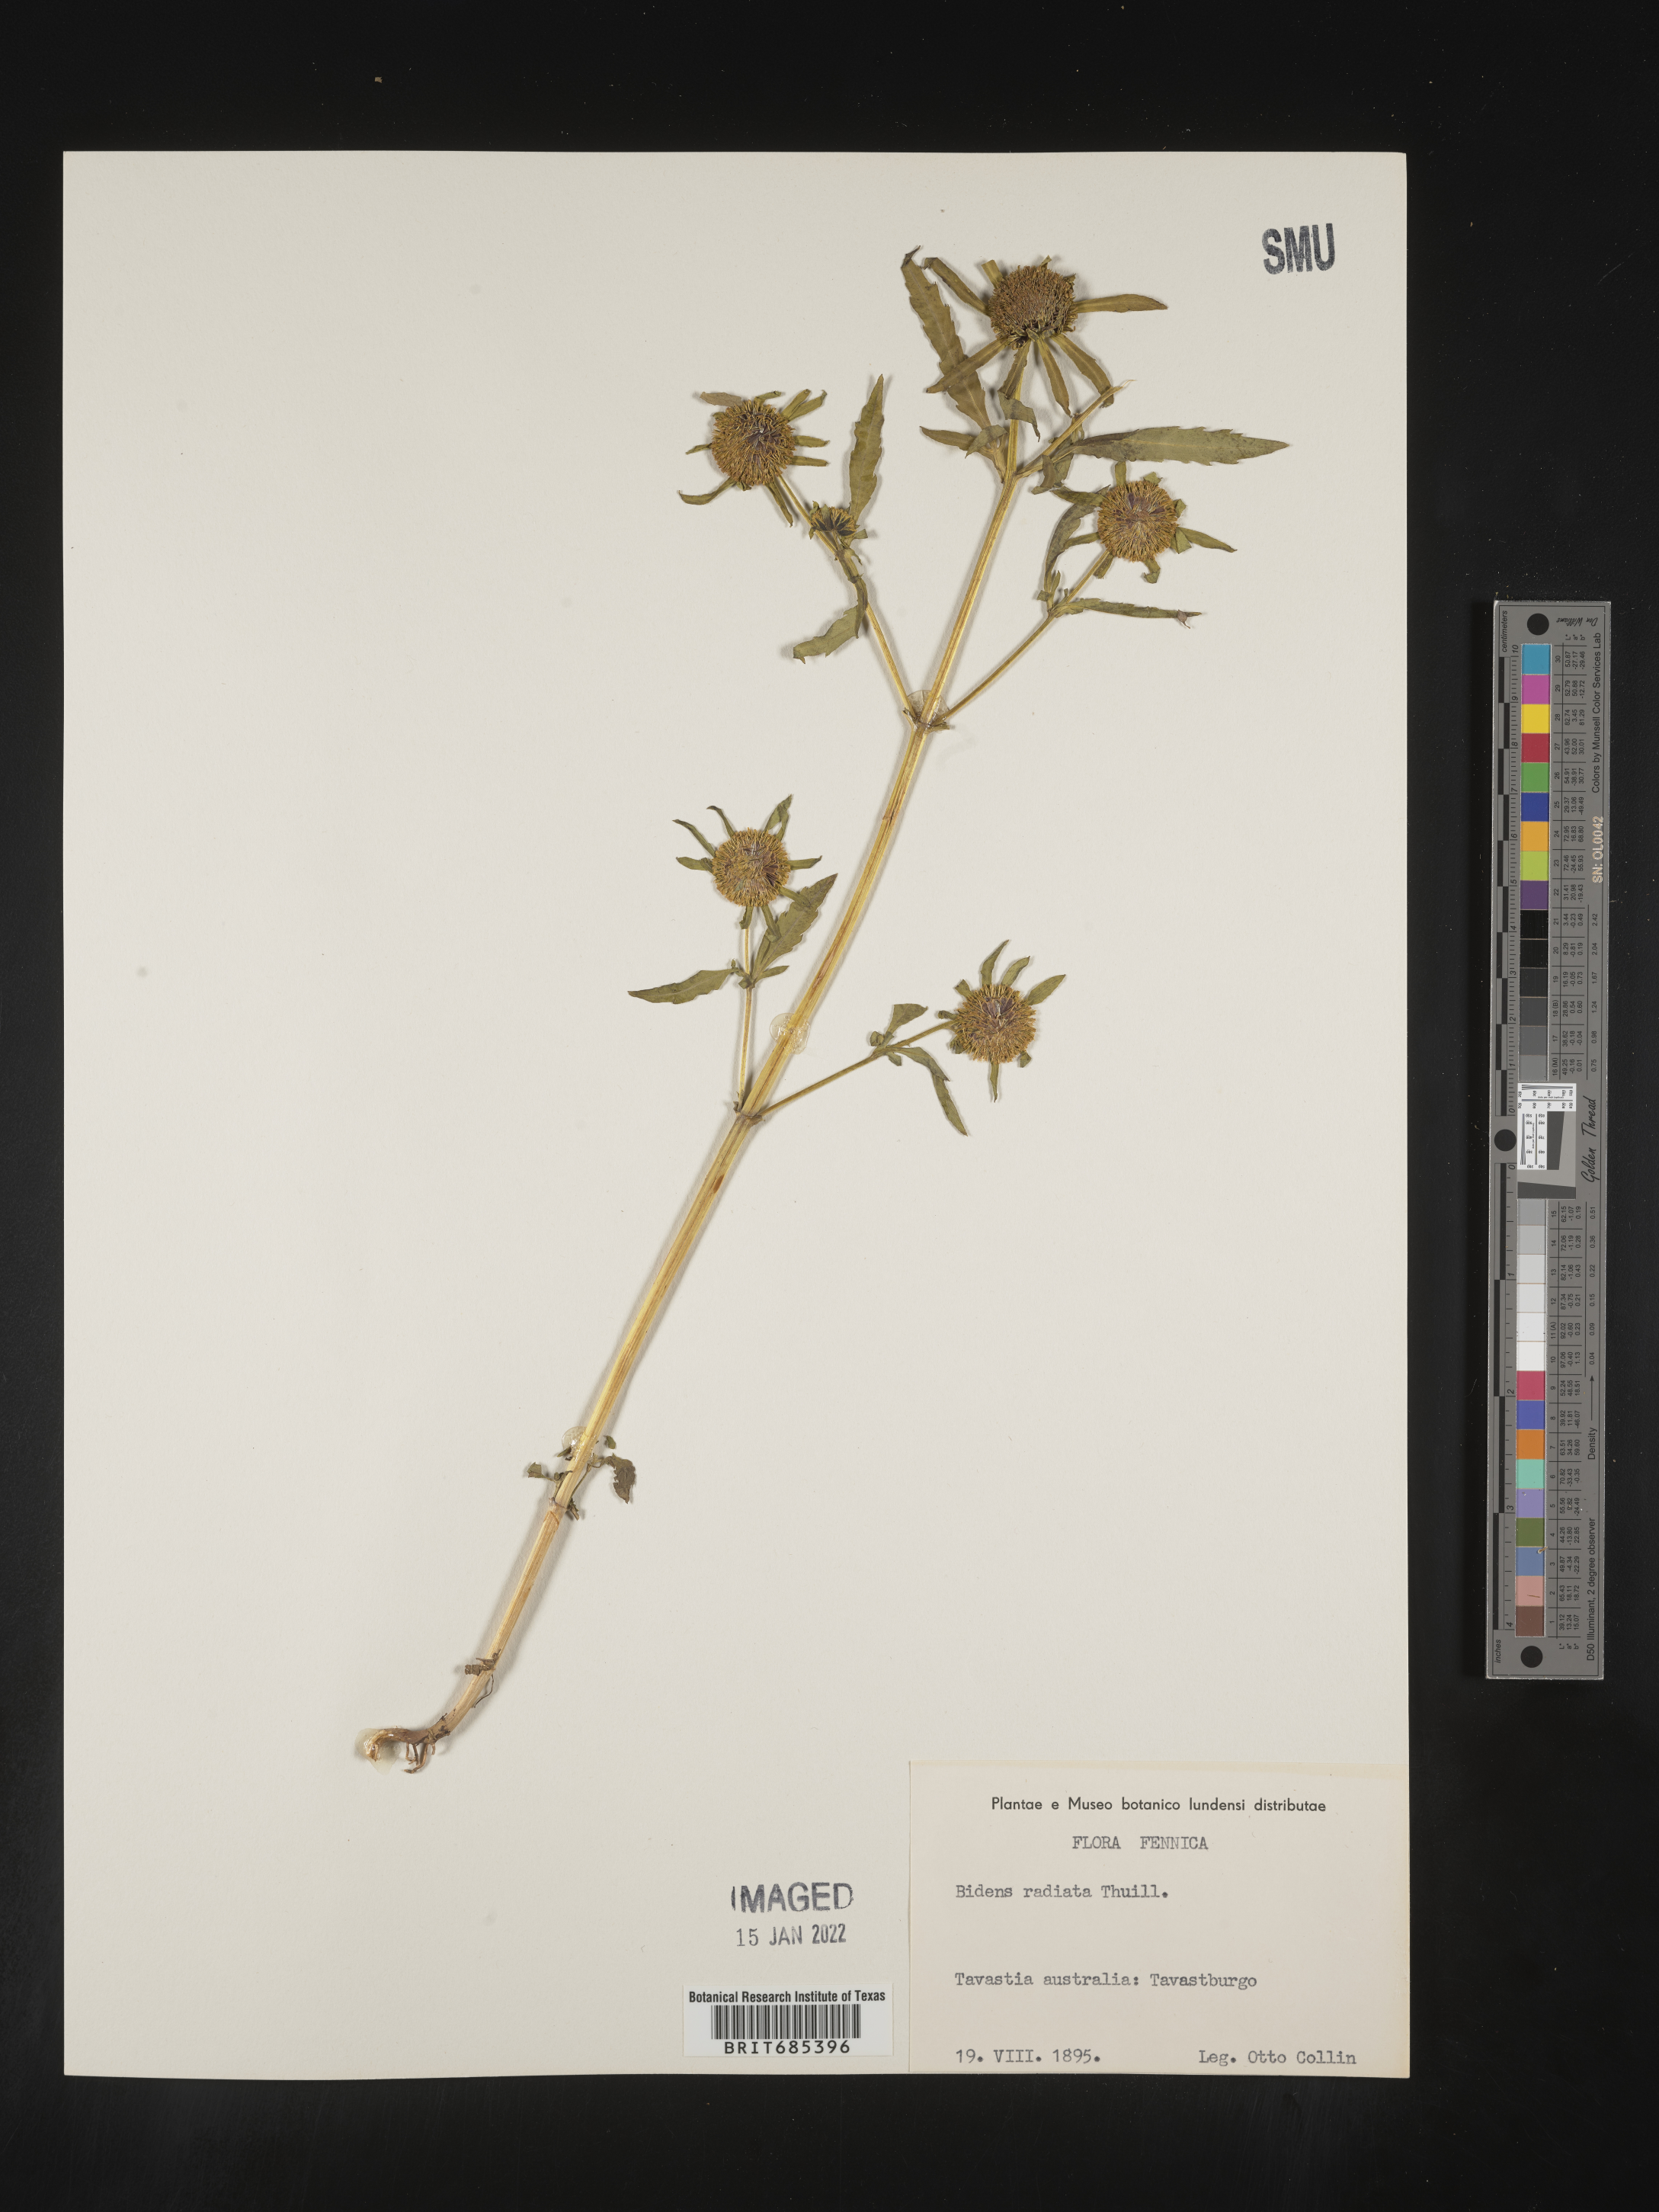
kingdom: Plantae
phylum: Tracheophyta
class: Magnoliopsida
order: Asterales
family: Asteraceae
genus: Bidens
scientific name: Bidens
